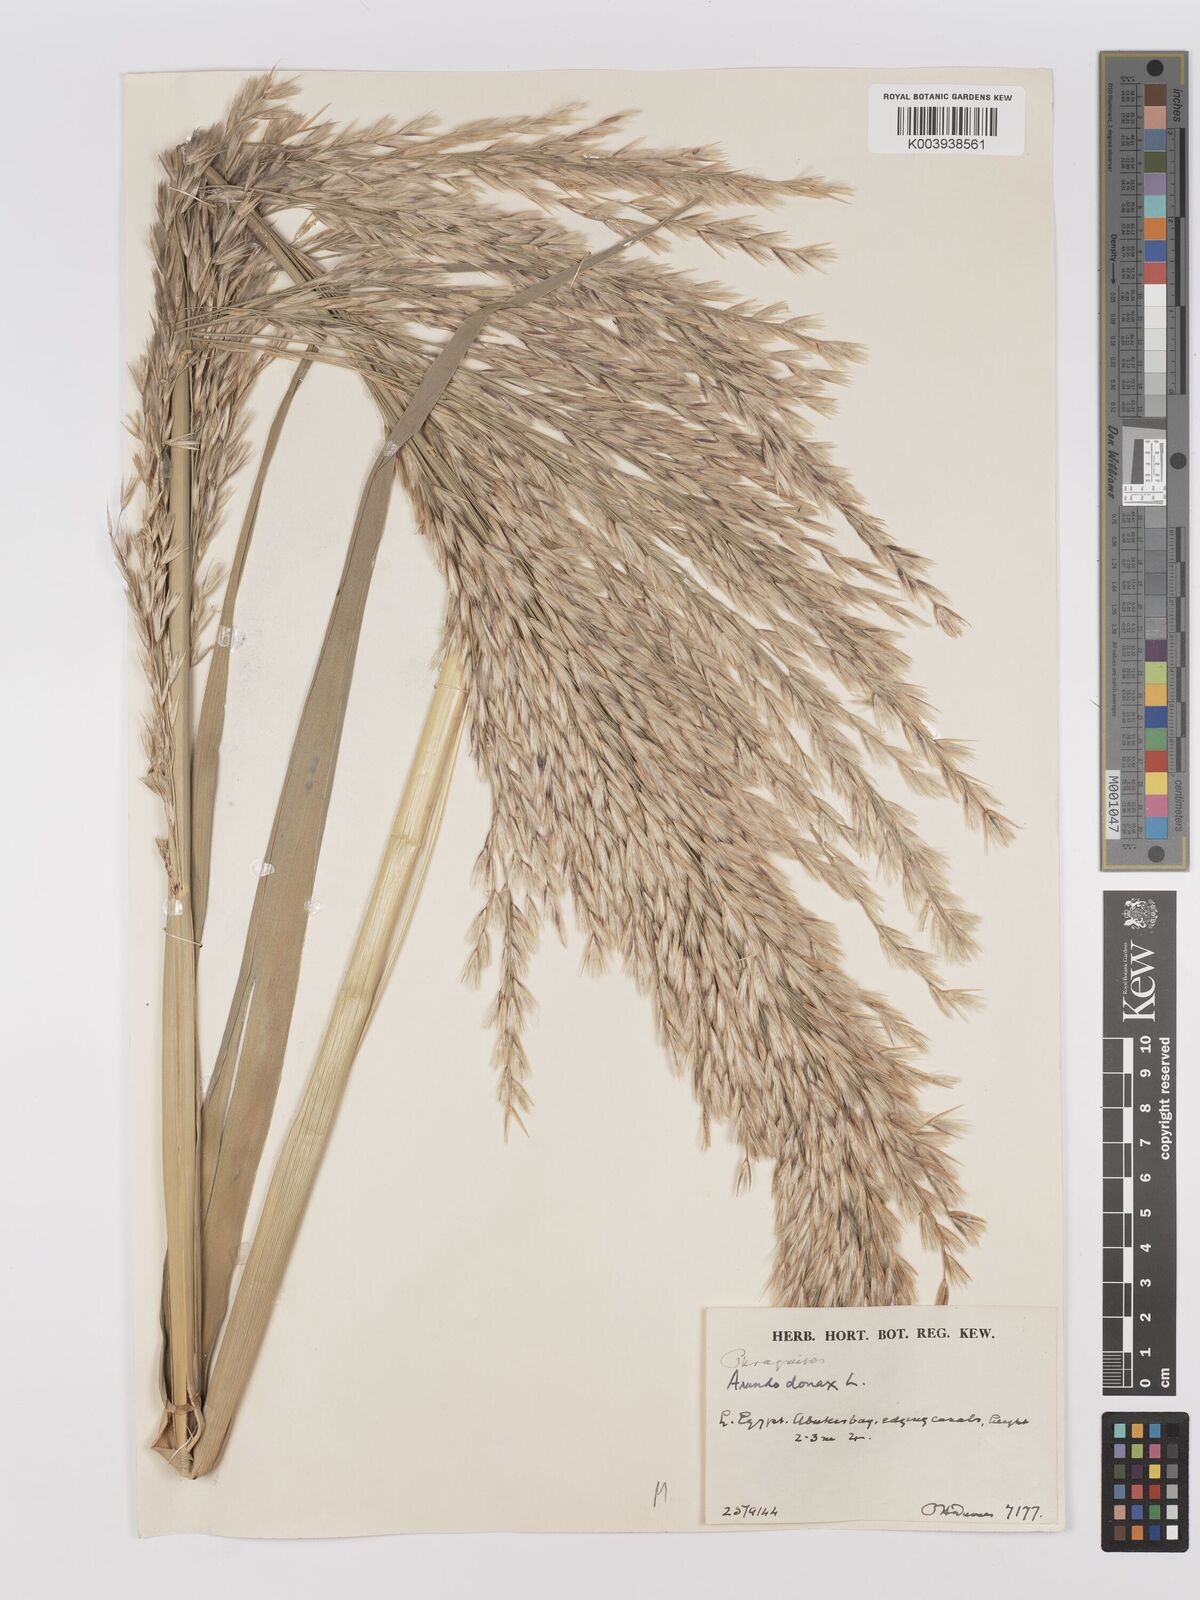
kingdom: Plantae
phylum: Tracheophyta
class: Liliopsida
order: Poales
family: Poaceae
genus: Phragmites
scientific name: Phragmites australis
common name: Common reed
